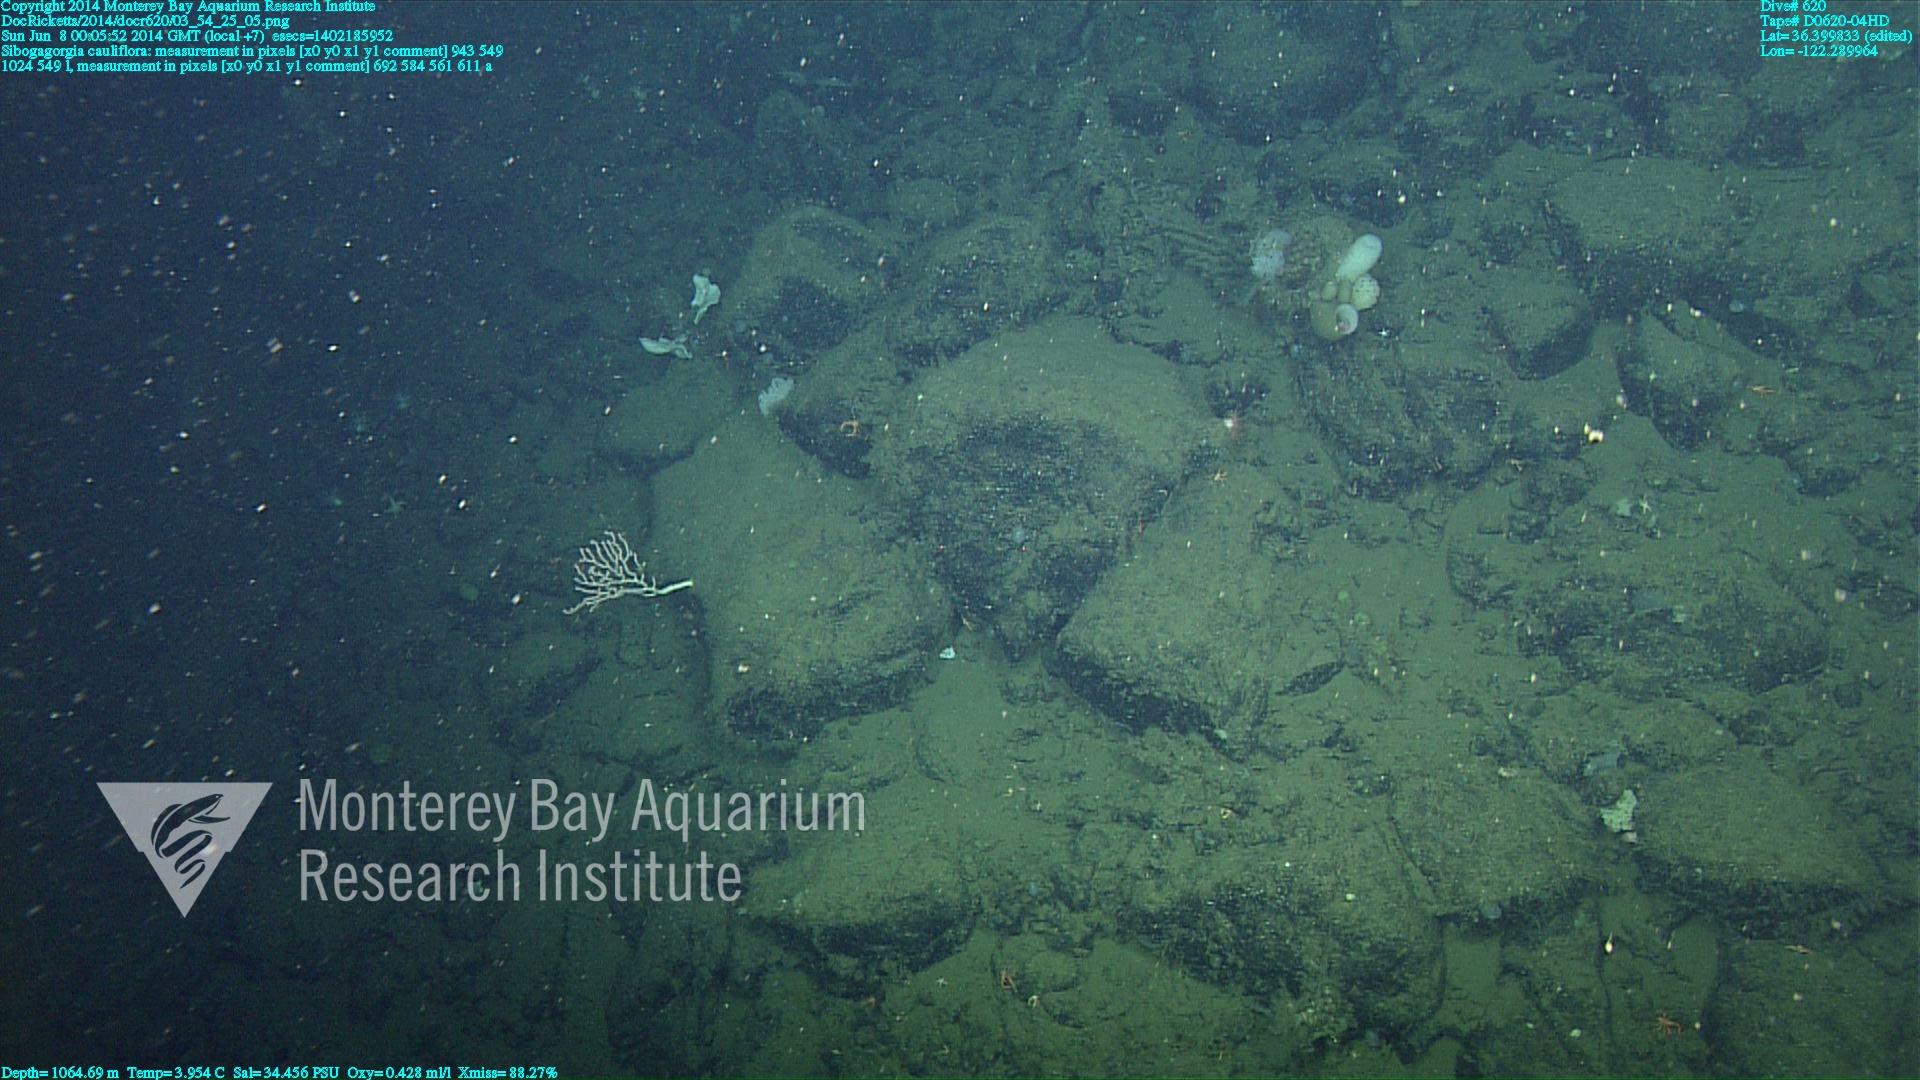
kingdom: Animalia
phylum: Cnidaria
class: Anthozoa
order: Scleralcyonacea
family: Coralliidae
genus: Sibogagorgia
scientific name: Sibogagorgia cauliflora
